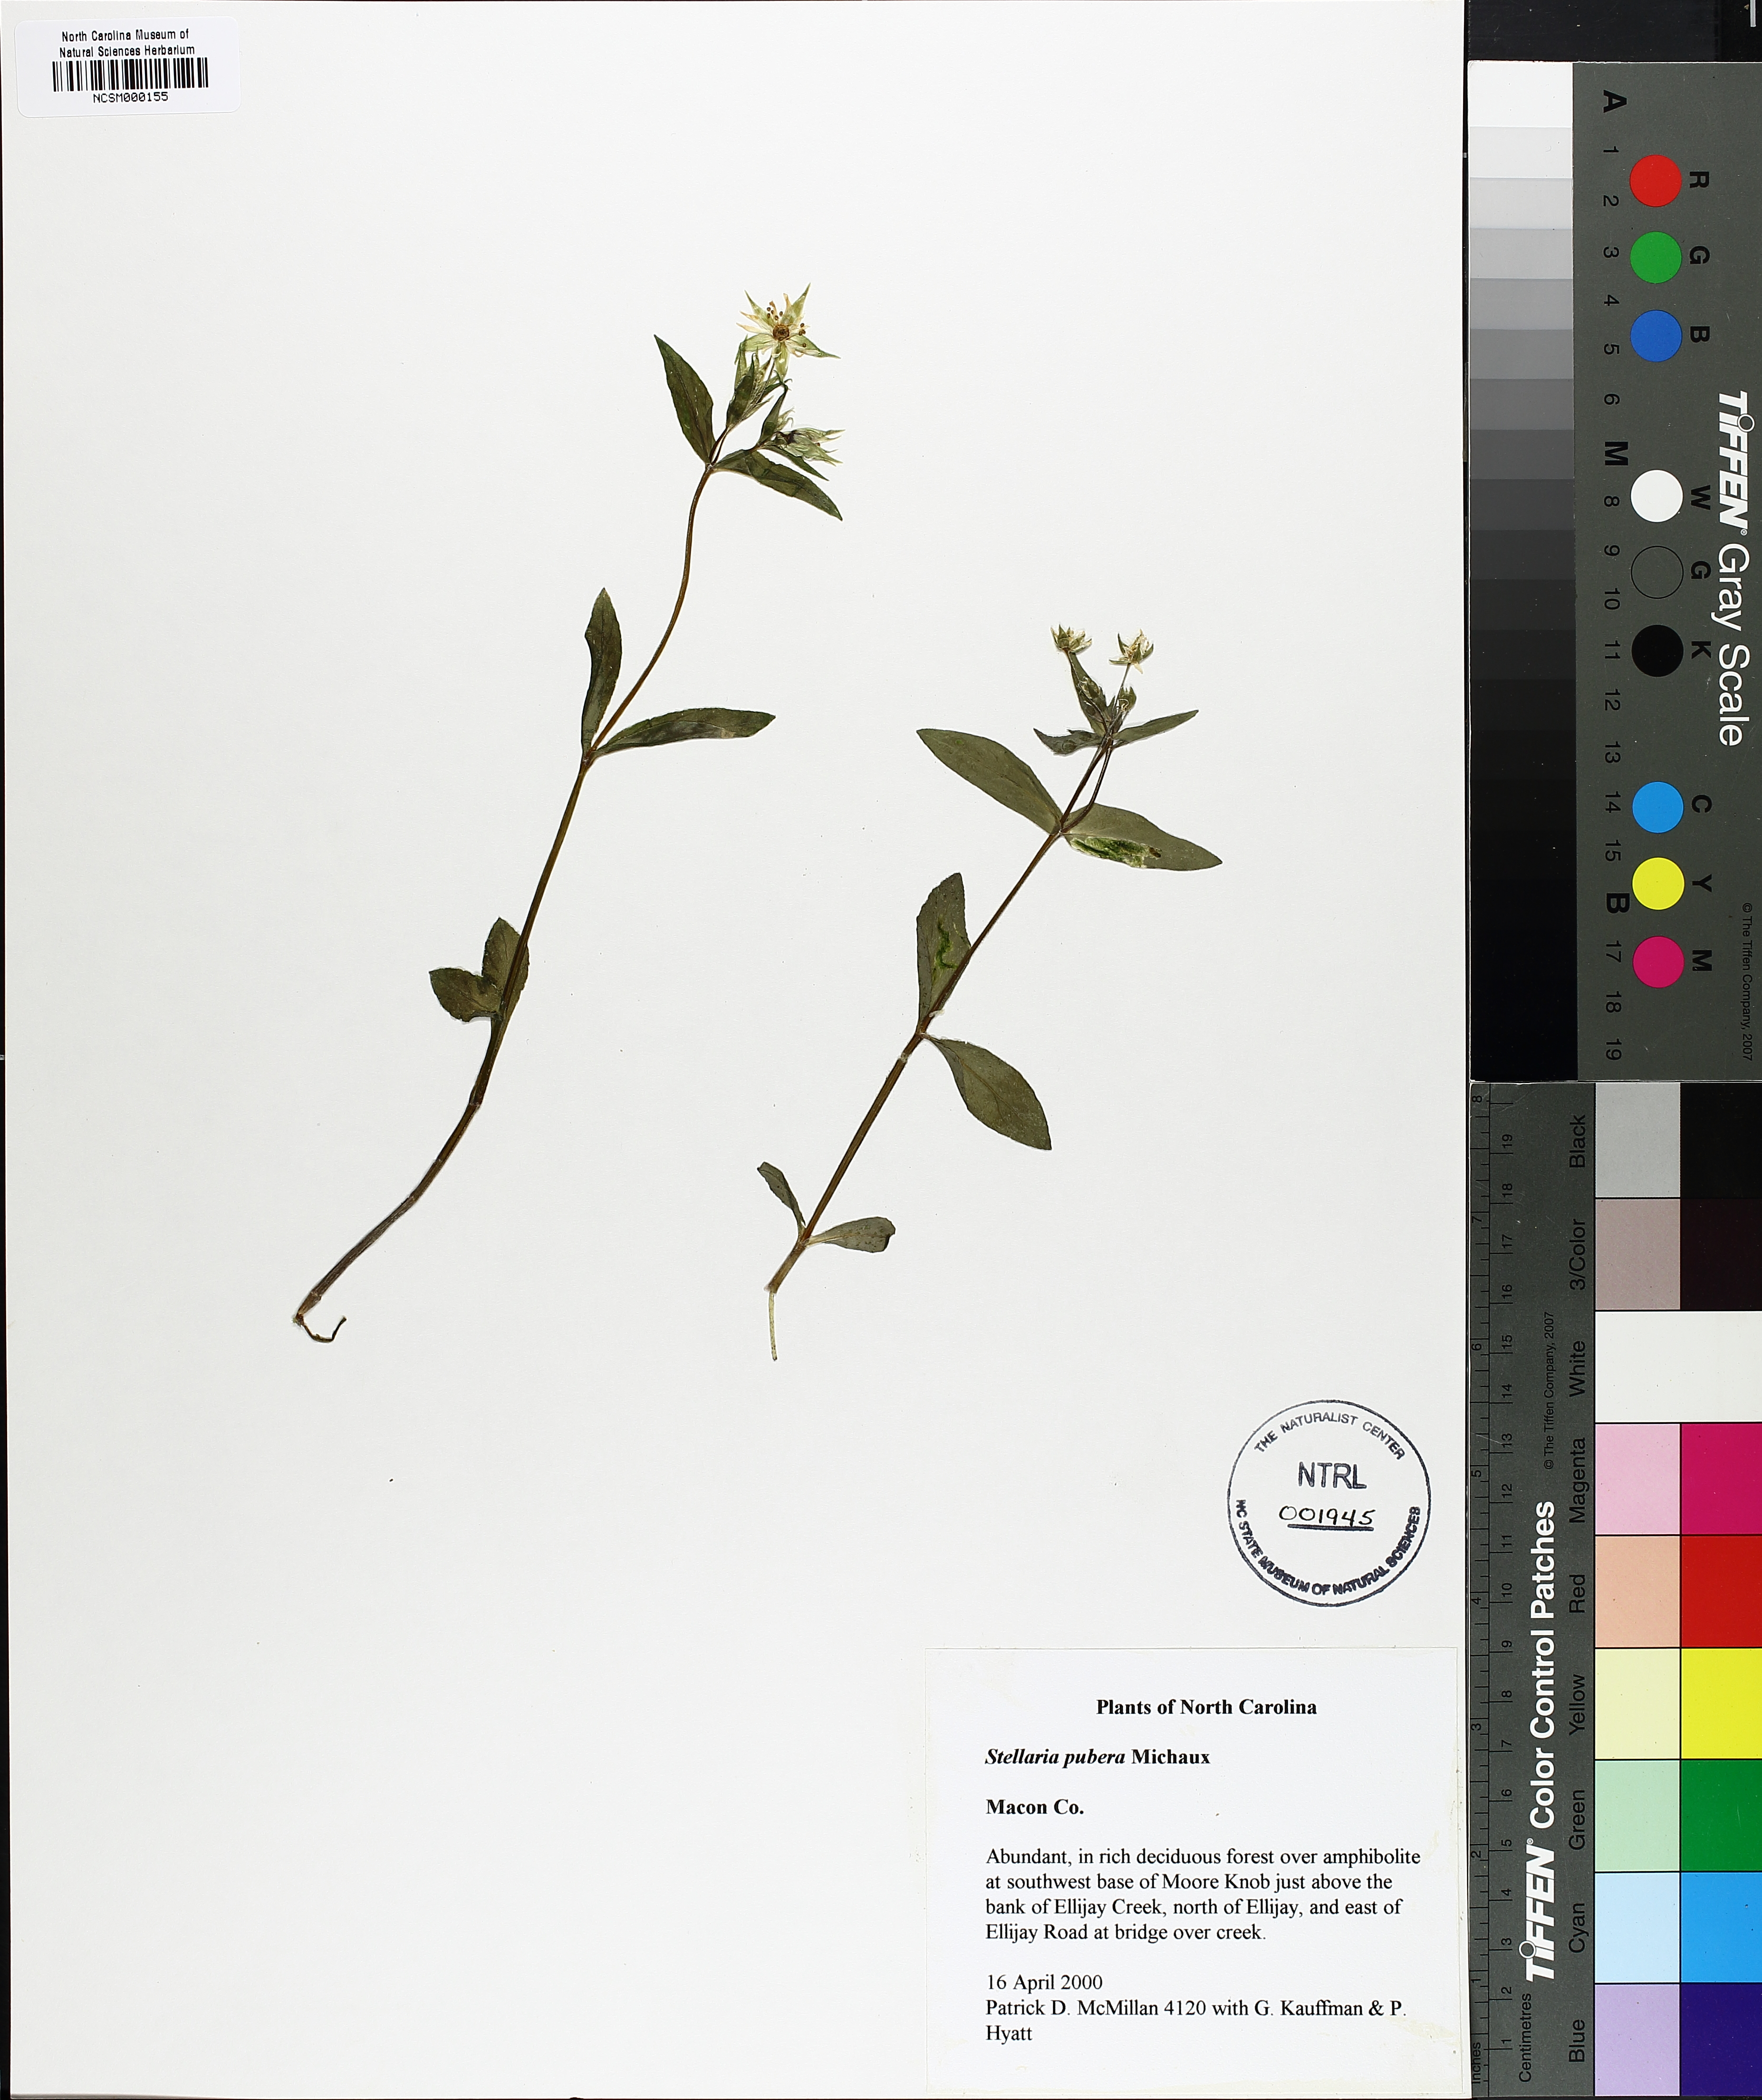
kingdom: Plantae
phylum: Tracheophyta
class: Magnoliopsida
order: Caryophyllales
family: Caryophyllaceae
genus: Stellaria
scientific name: Stellaria pubera
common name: Star chickweed
